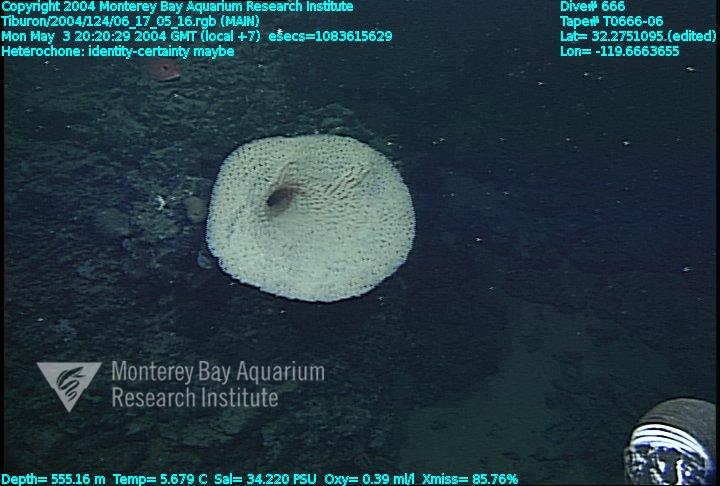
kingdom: Animalia
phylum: Porifera
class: Hexactinellida
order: Sceptrulophora
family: Aphrocallistidae
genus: Heterochone
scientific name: Heterochone
